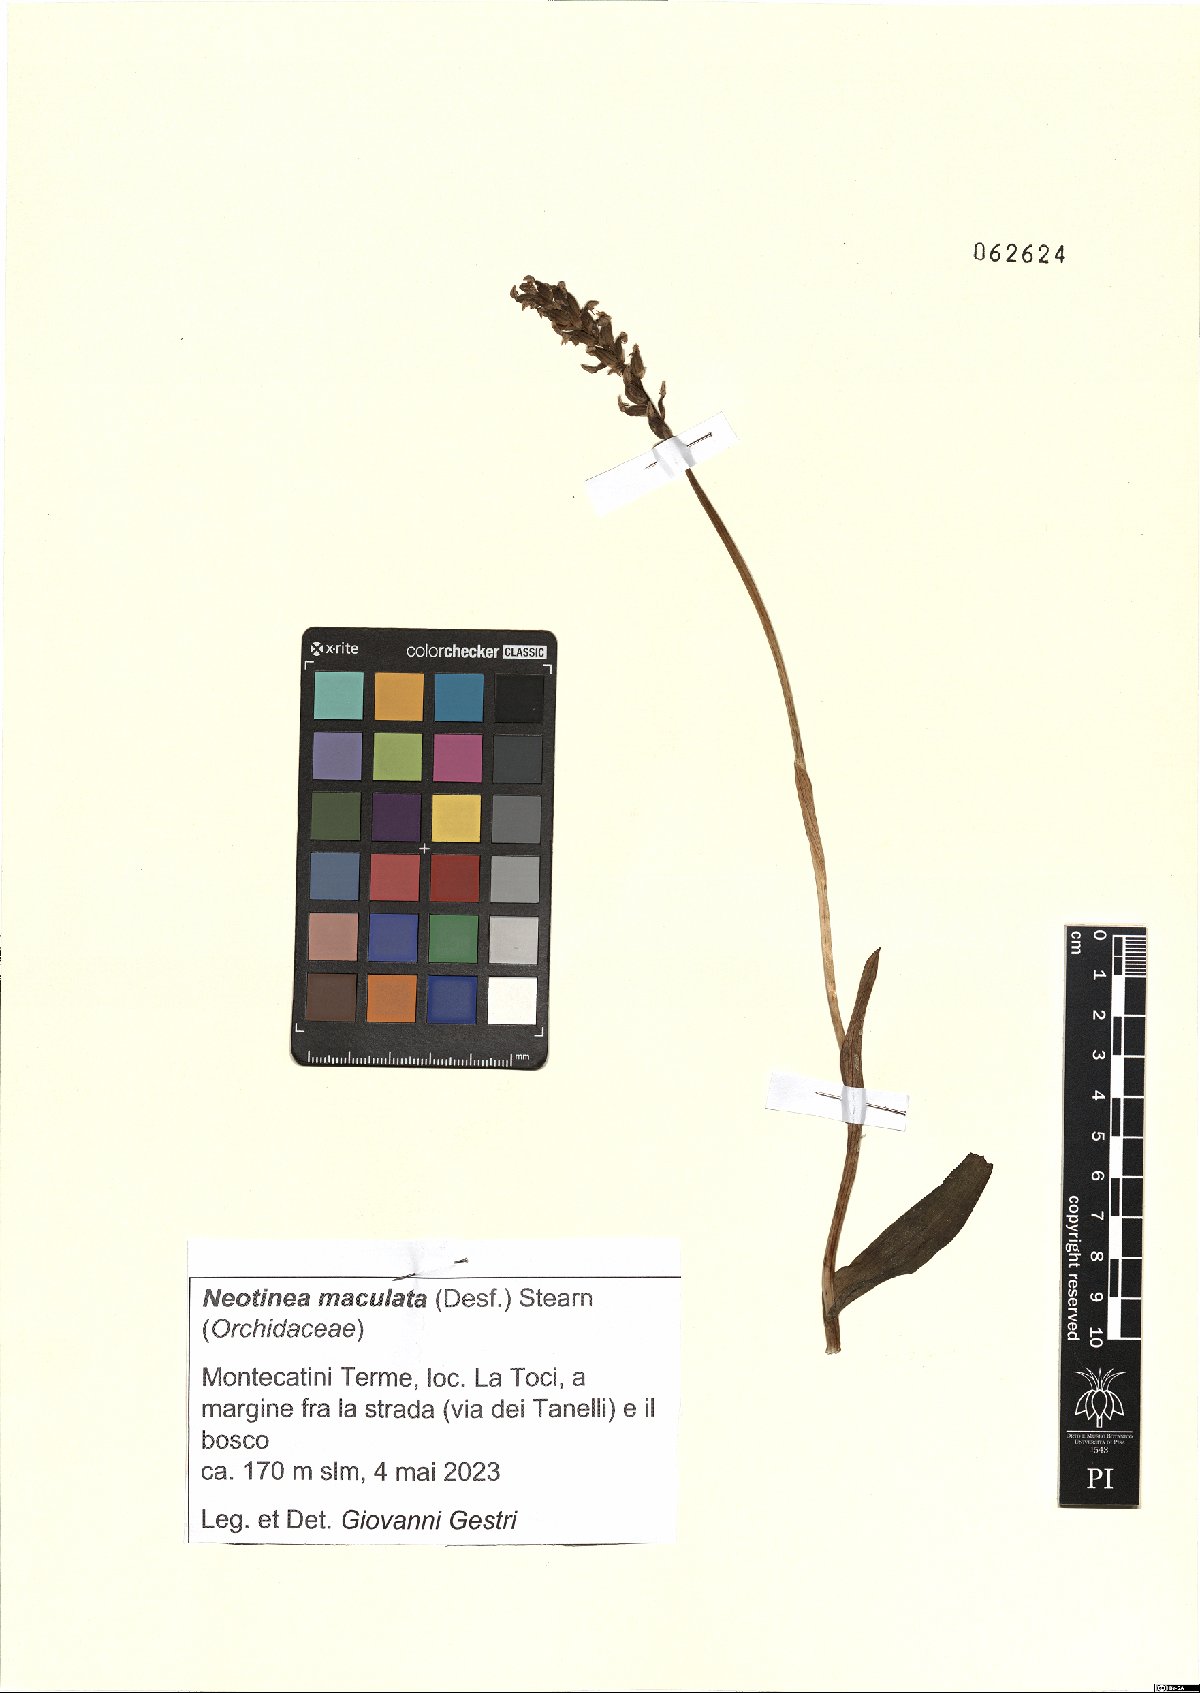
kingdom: Plantae
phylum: Tracheophyta
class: Liliopsida
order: Asparagales
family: Orchidaceae
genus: Neotinea
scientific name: Neotinea maculata
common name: Dense-flowered orchid
